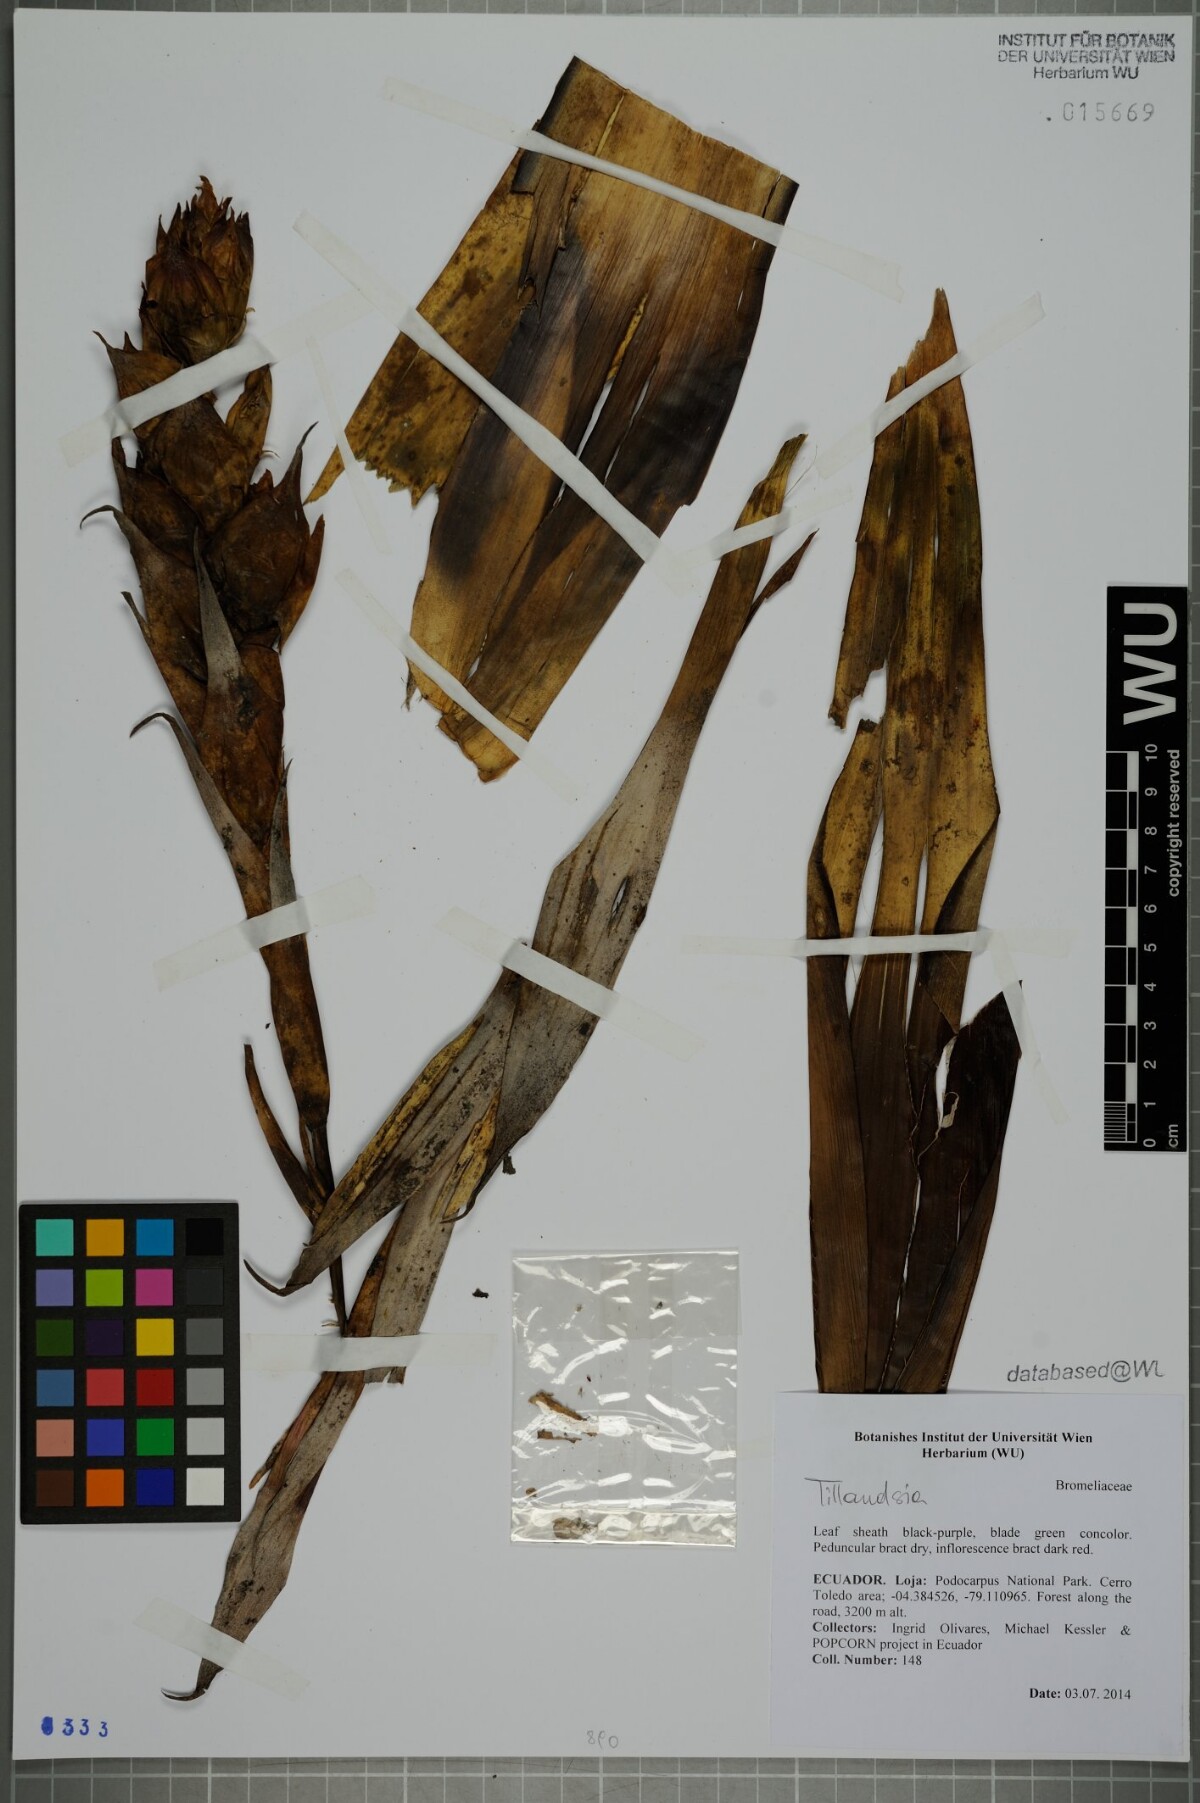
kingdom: Plantae
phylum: Tracheophyta
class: Liliopsida
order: Poales
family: Bromeliaceae
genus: Tillandsia
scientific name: Tillandsia
